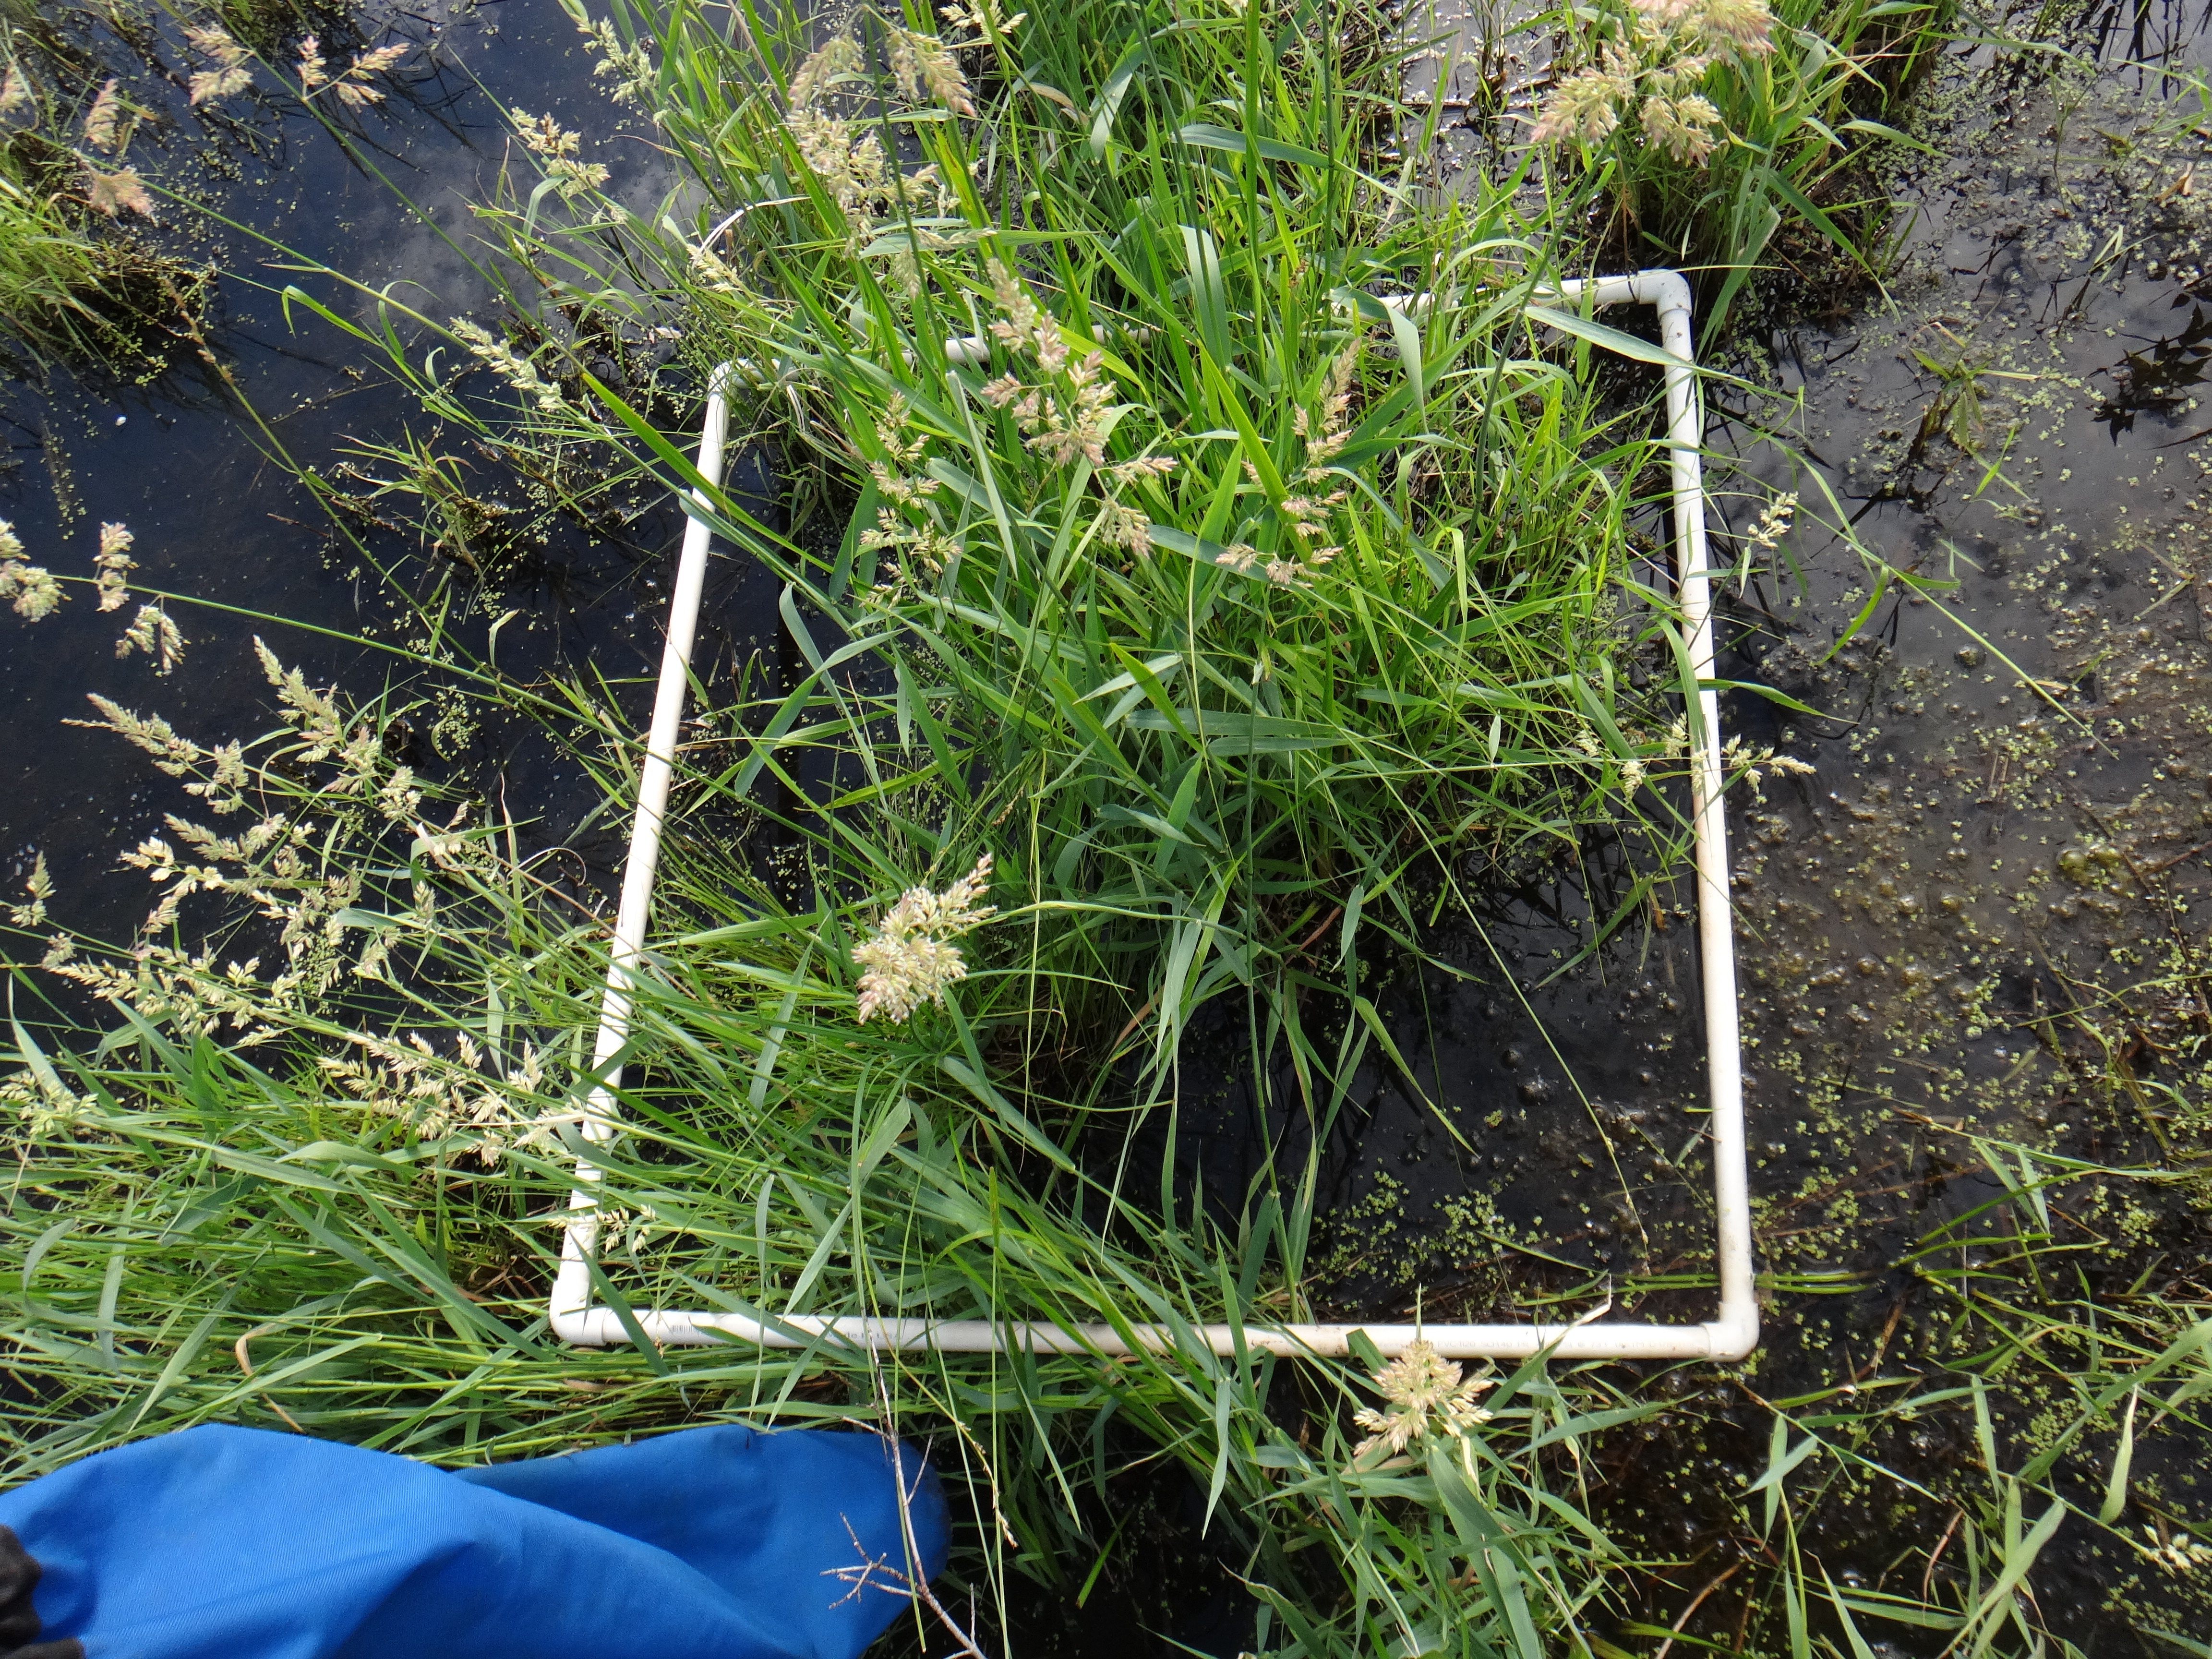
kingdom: Plantae
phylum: Tracheophyta
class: Liliopsida
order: Poales
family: Poaceae
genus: Muhlenbergia
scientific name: Muhlenbergia glomerata
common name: Bog muhly
